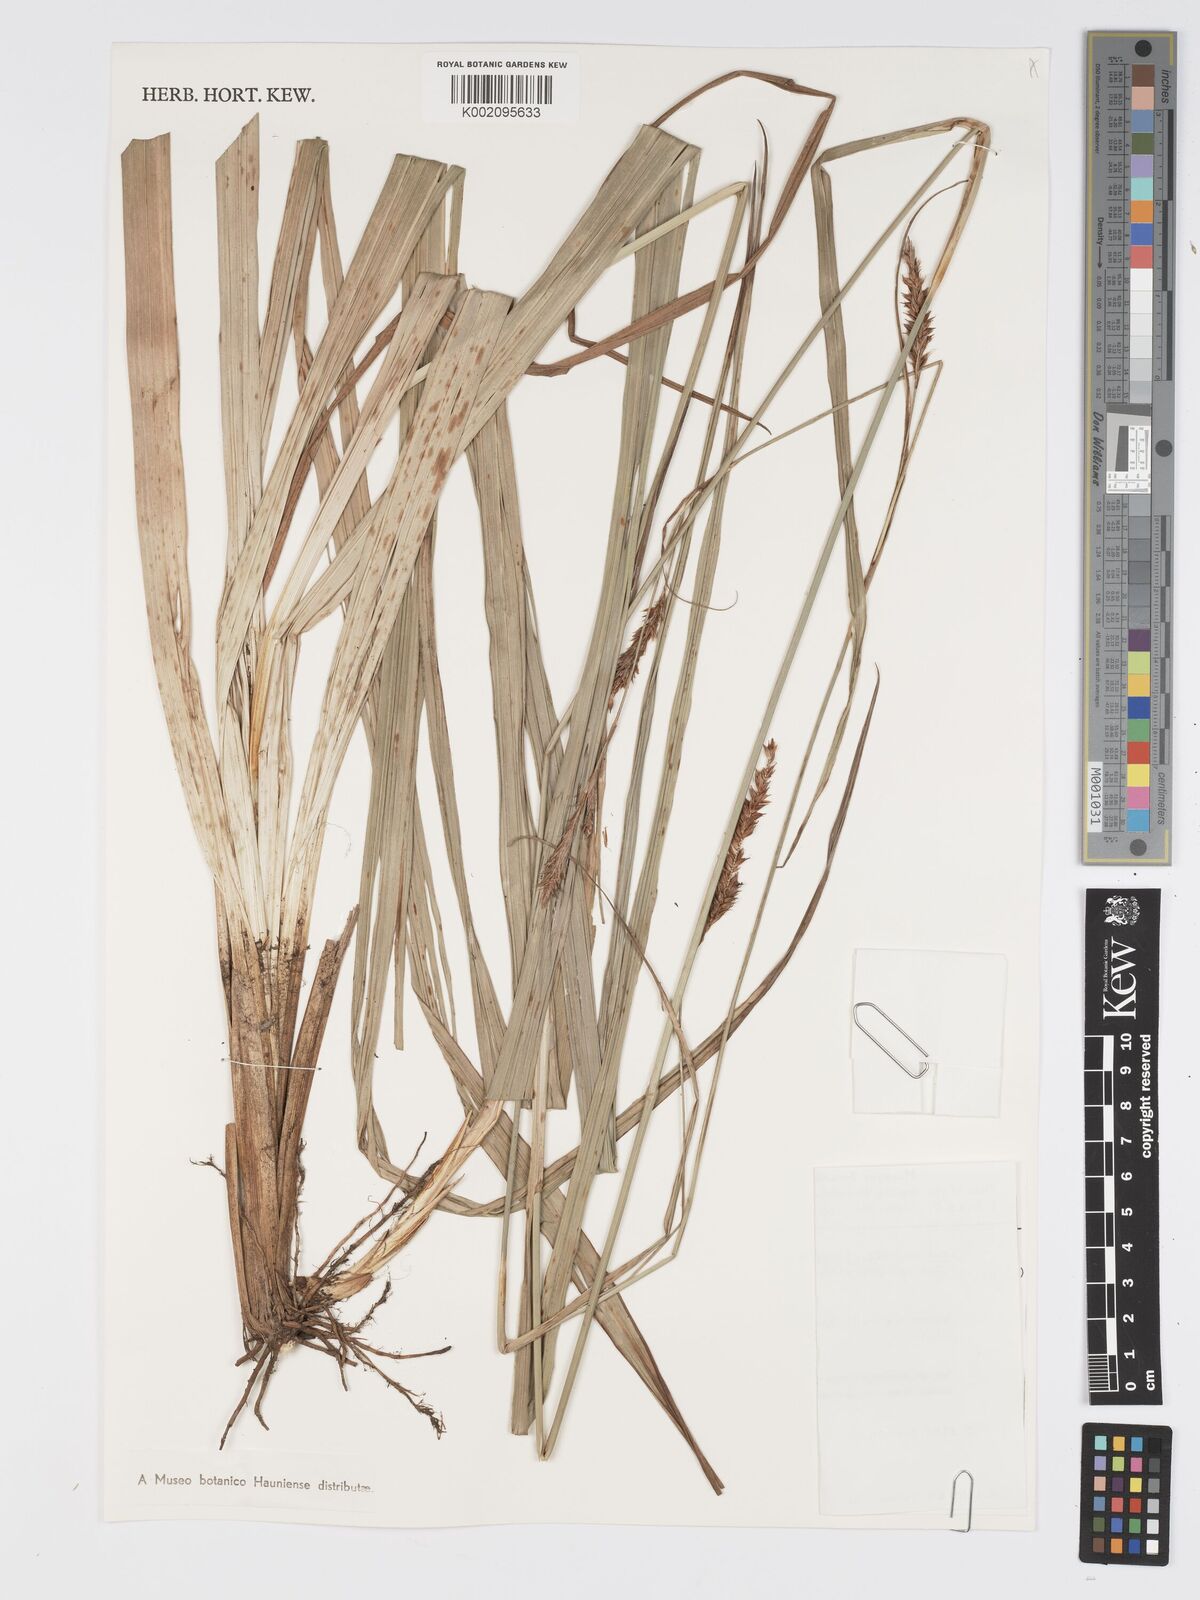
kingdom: Plantae
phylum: Tracheophyta
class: Liliopsida
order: Poales
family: Cyperaceae
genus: Carex
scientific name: Carex petitiana
